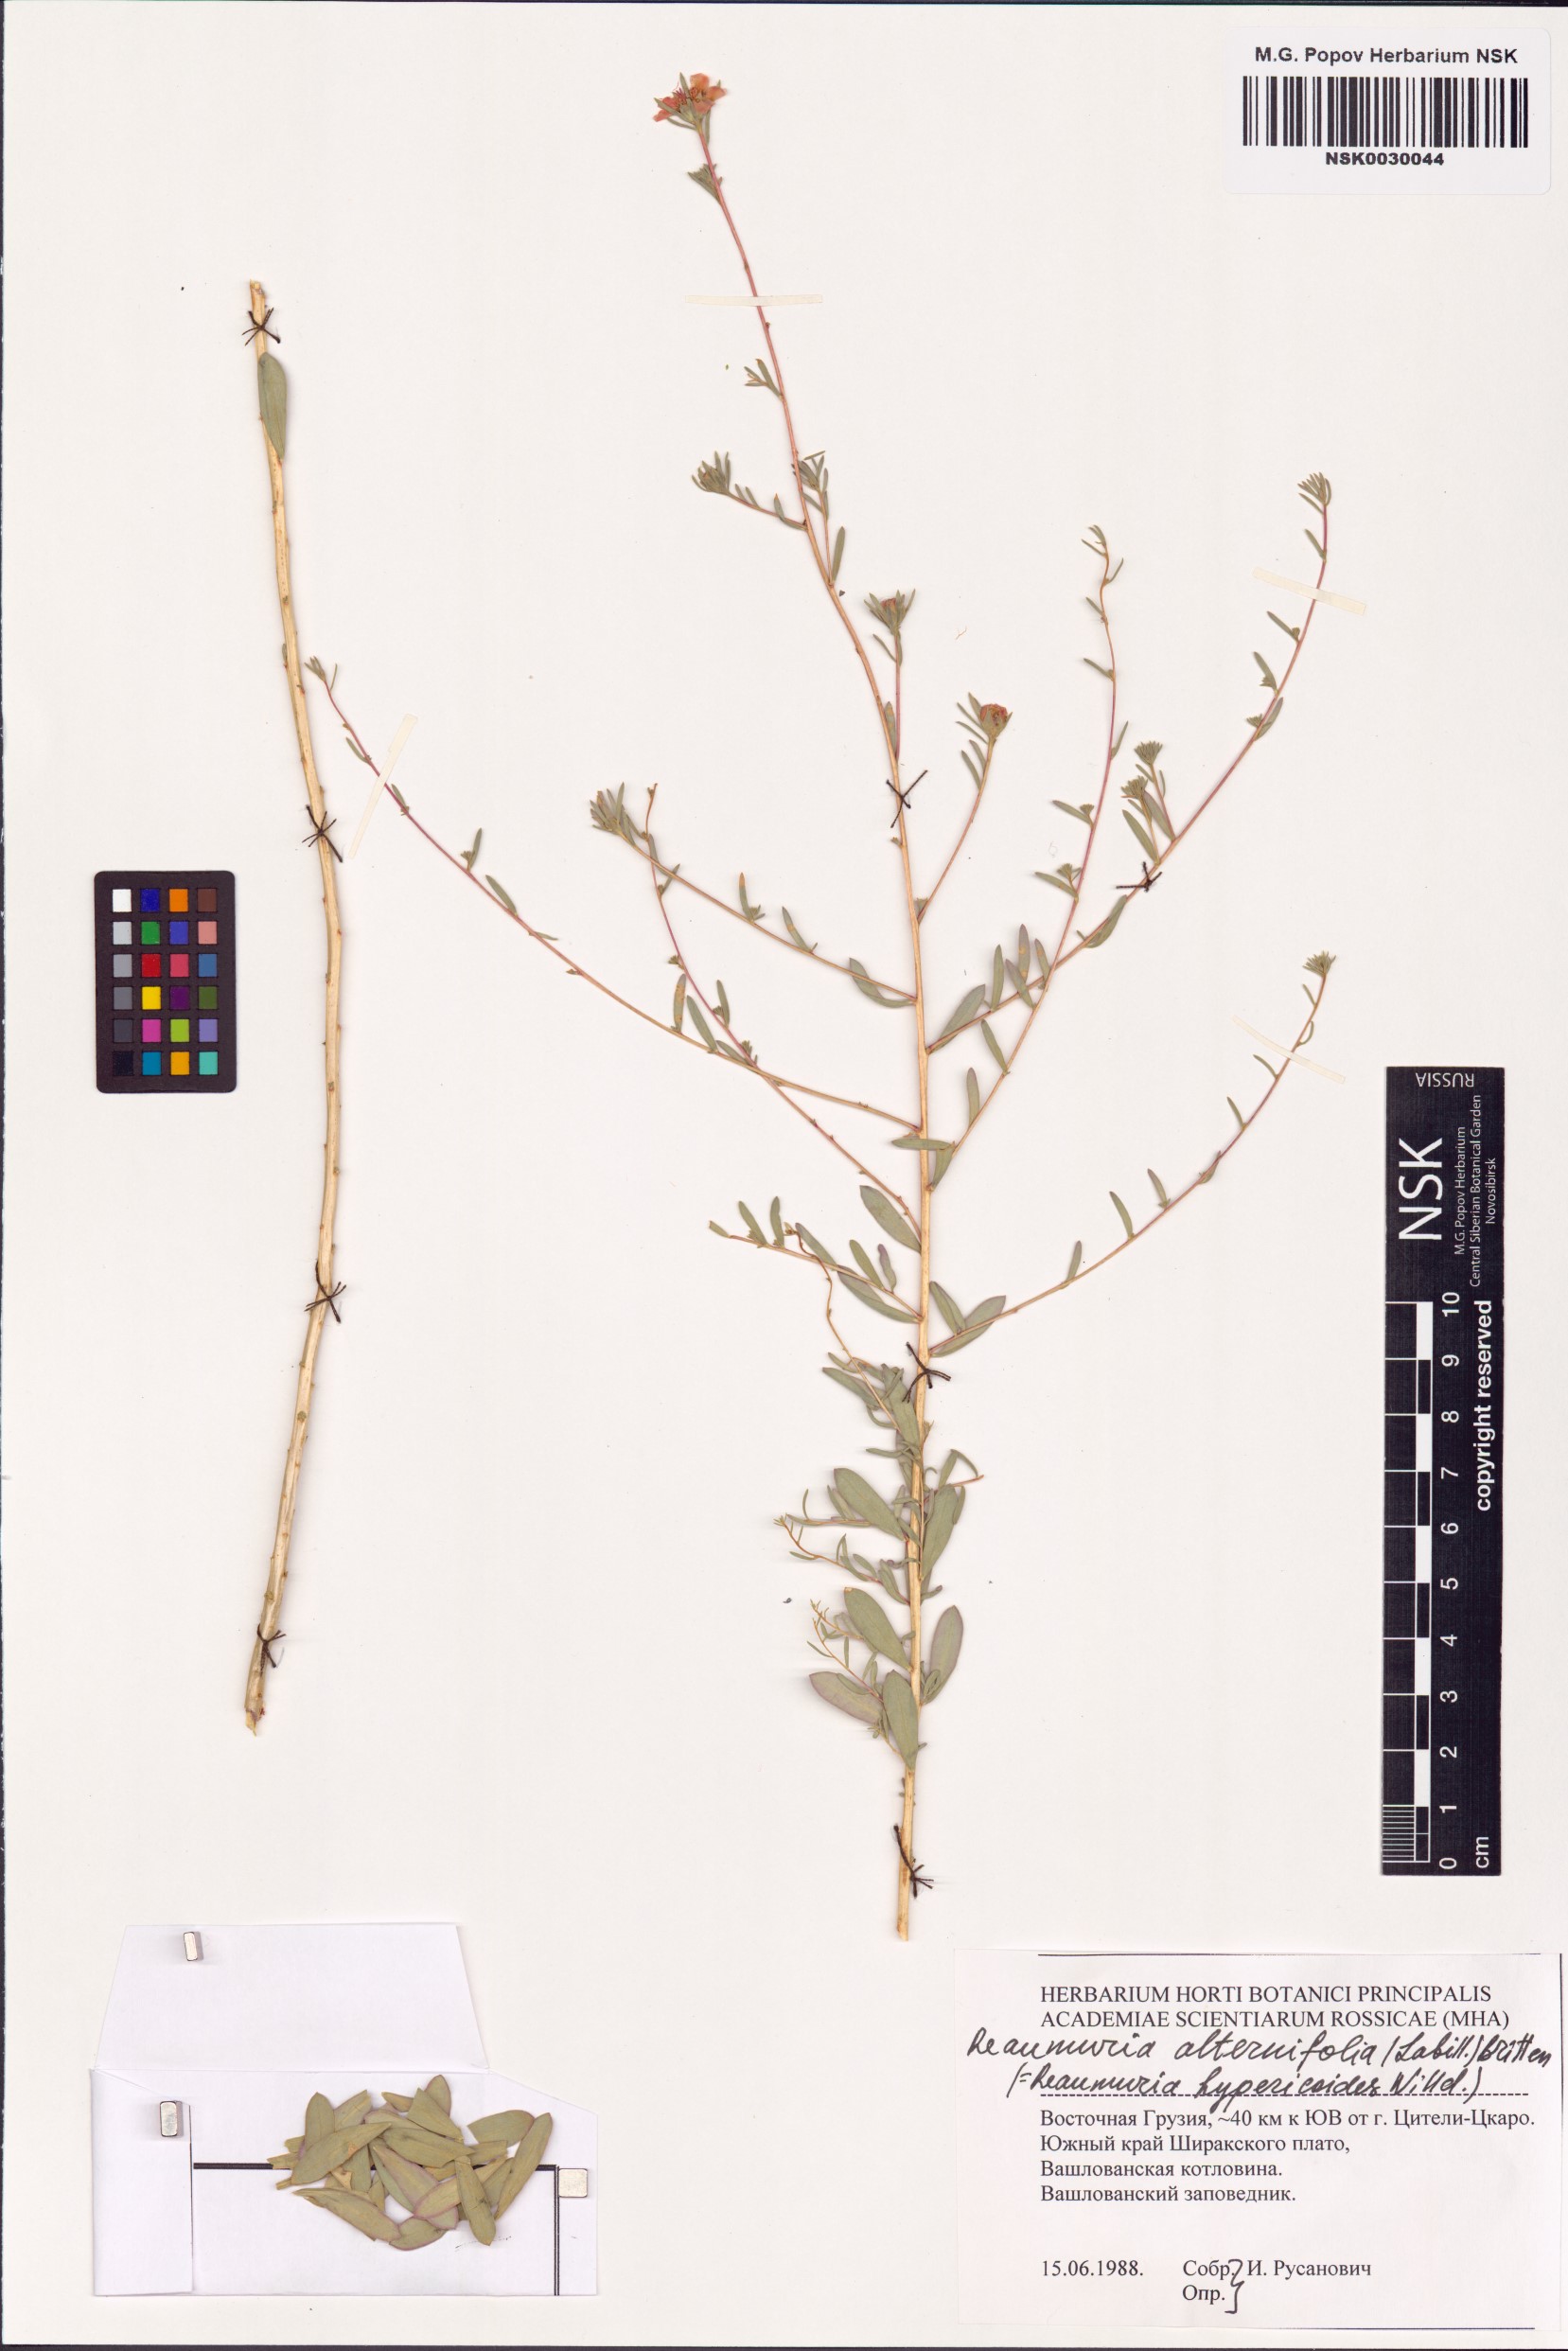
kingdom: Plantae
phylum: Tracheophyta
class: Magnoliopsida
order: Caryophyllales
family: Tamaricaceae
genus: Reaumuria
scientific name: Reaumuria alternifolia
